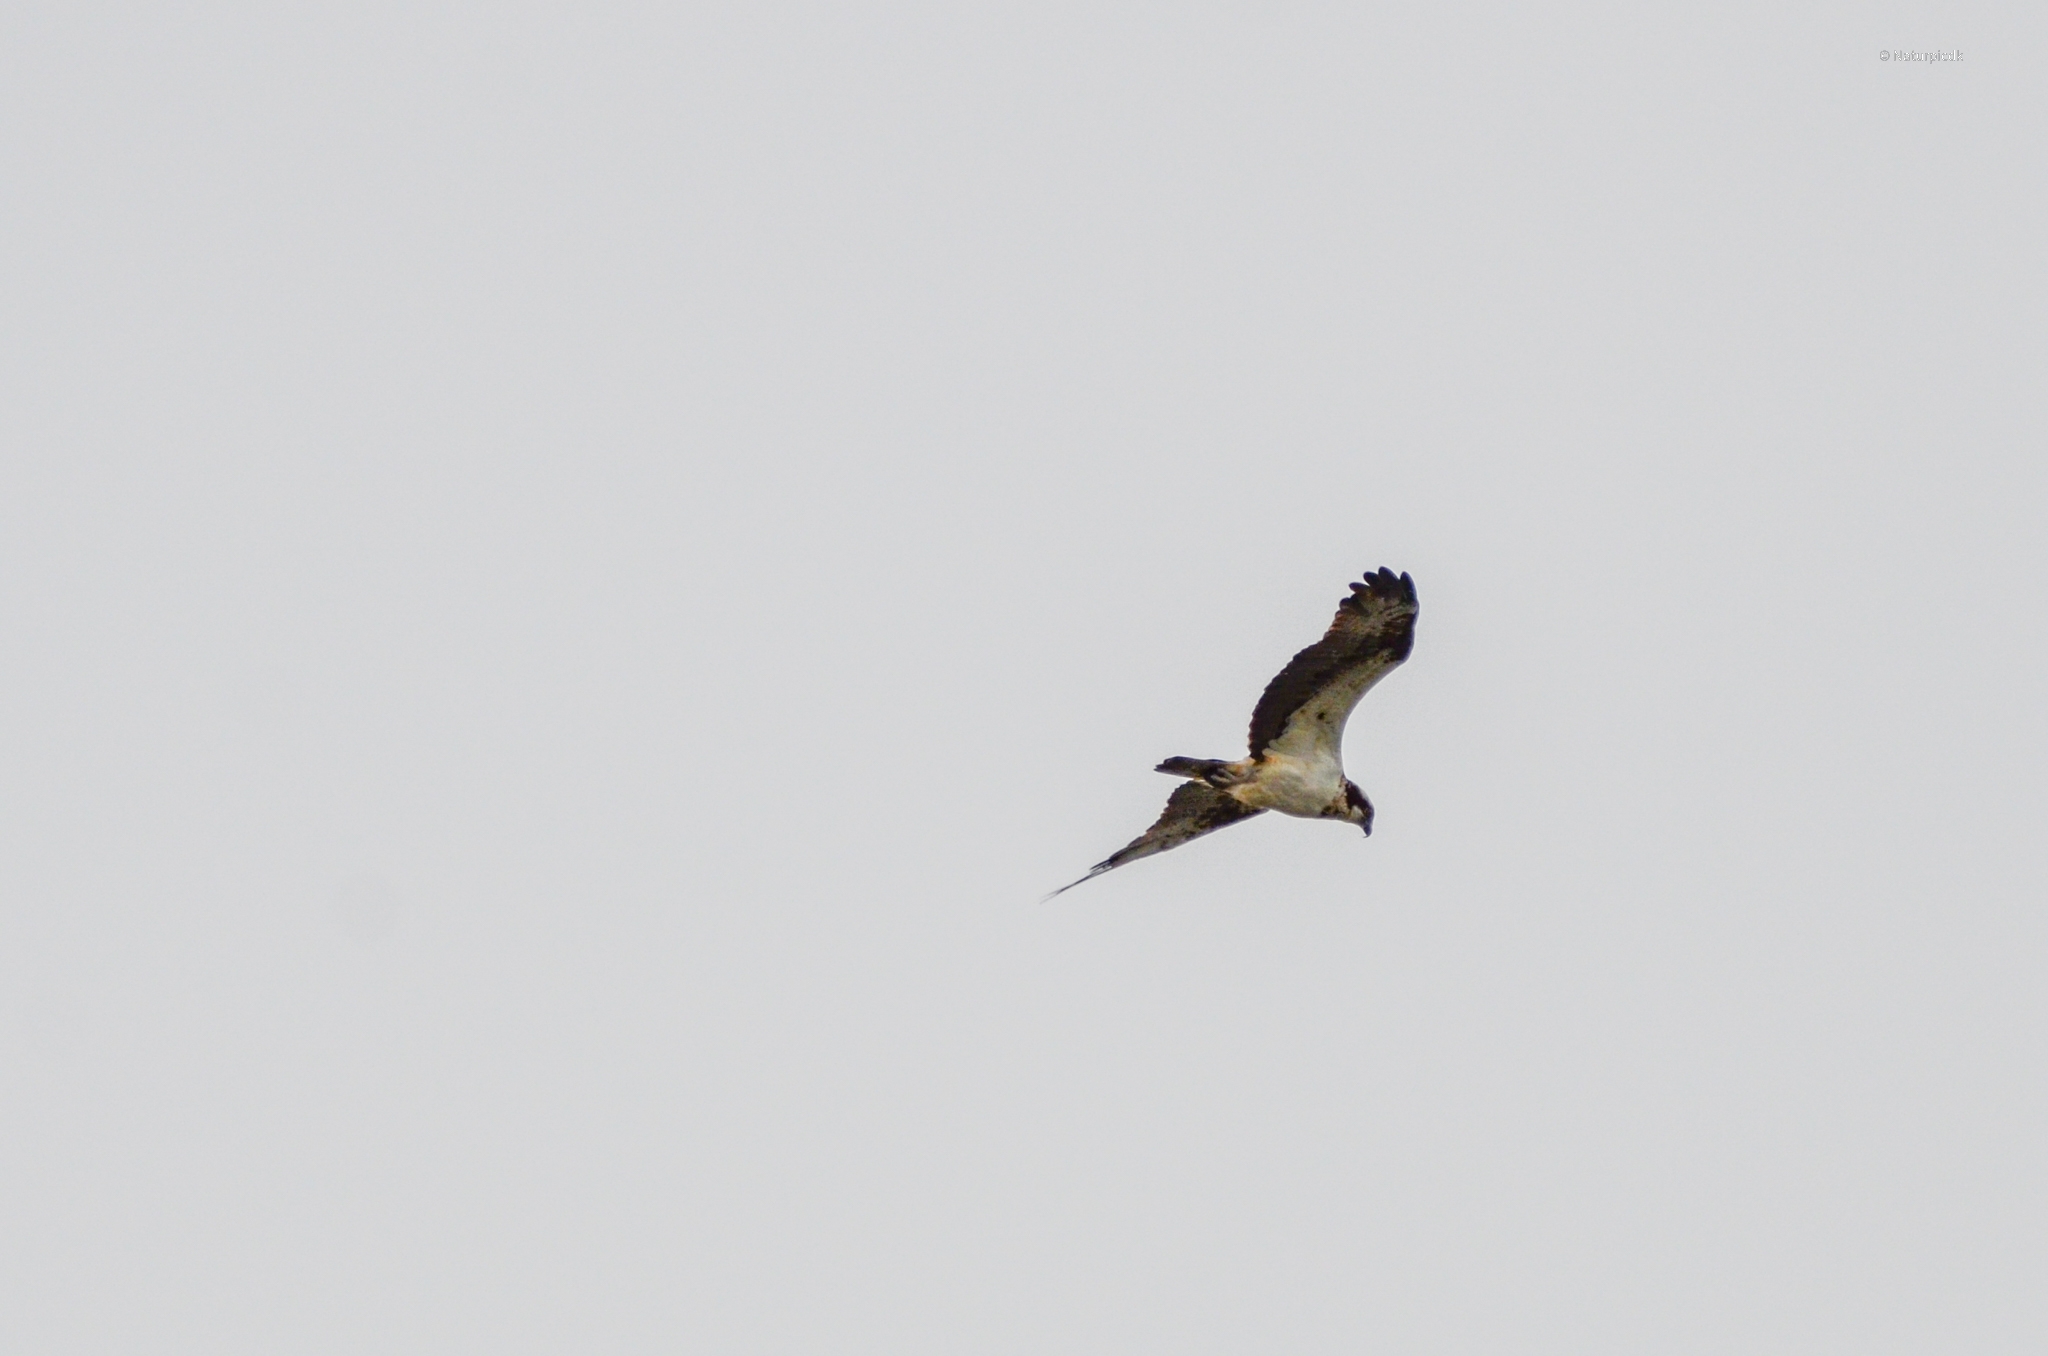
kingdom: Animalia
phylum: Chordata
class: Aves
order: Accipitriformes
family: Pandionidae
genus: Pandion
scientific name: Pandion haliaetus
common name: Fiskeørn
